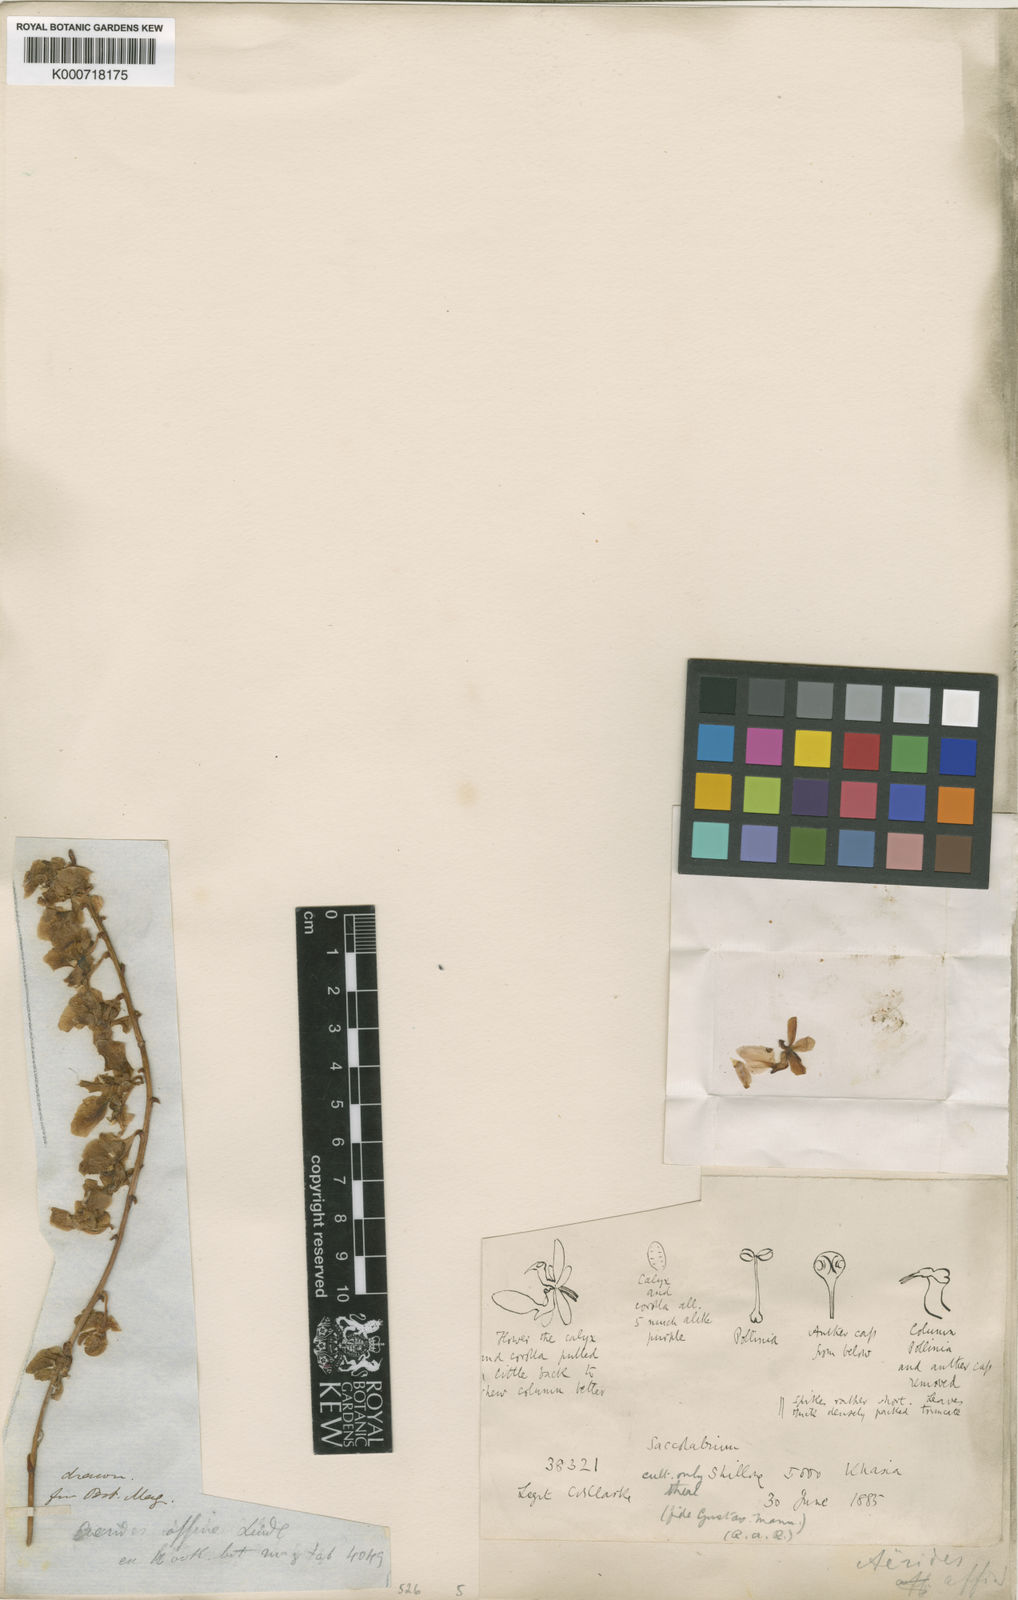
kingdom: Plantae
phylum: Tracheophyta
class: Liliopsida
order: Asparagales
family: Orchidaceae
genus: Aerides
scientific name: Aerides multiflora
